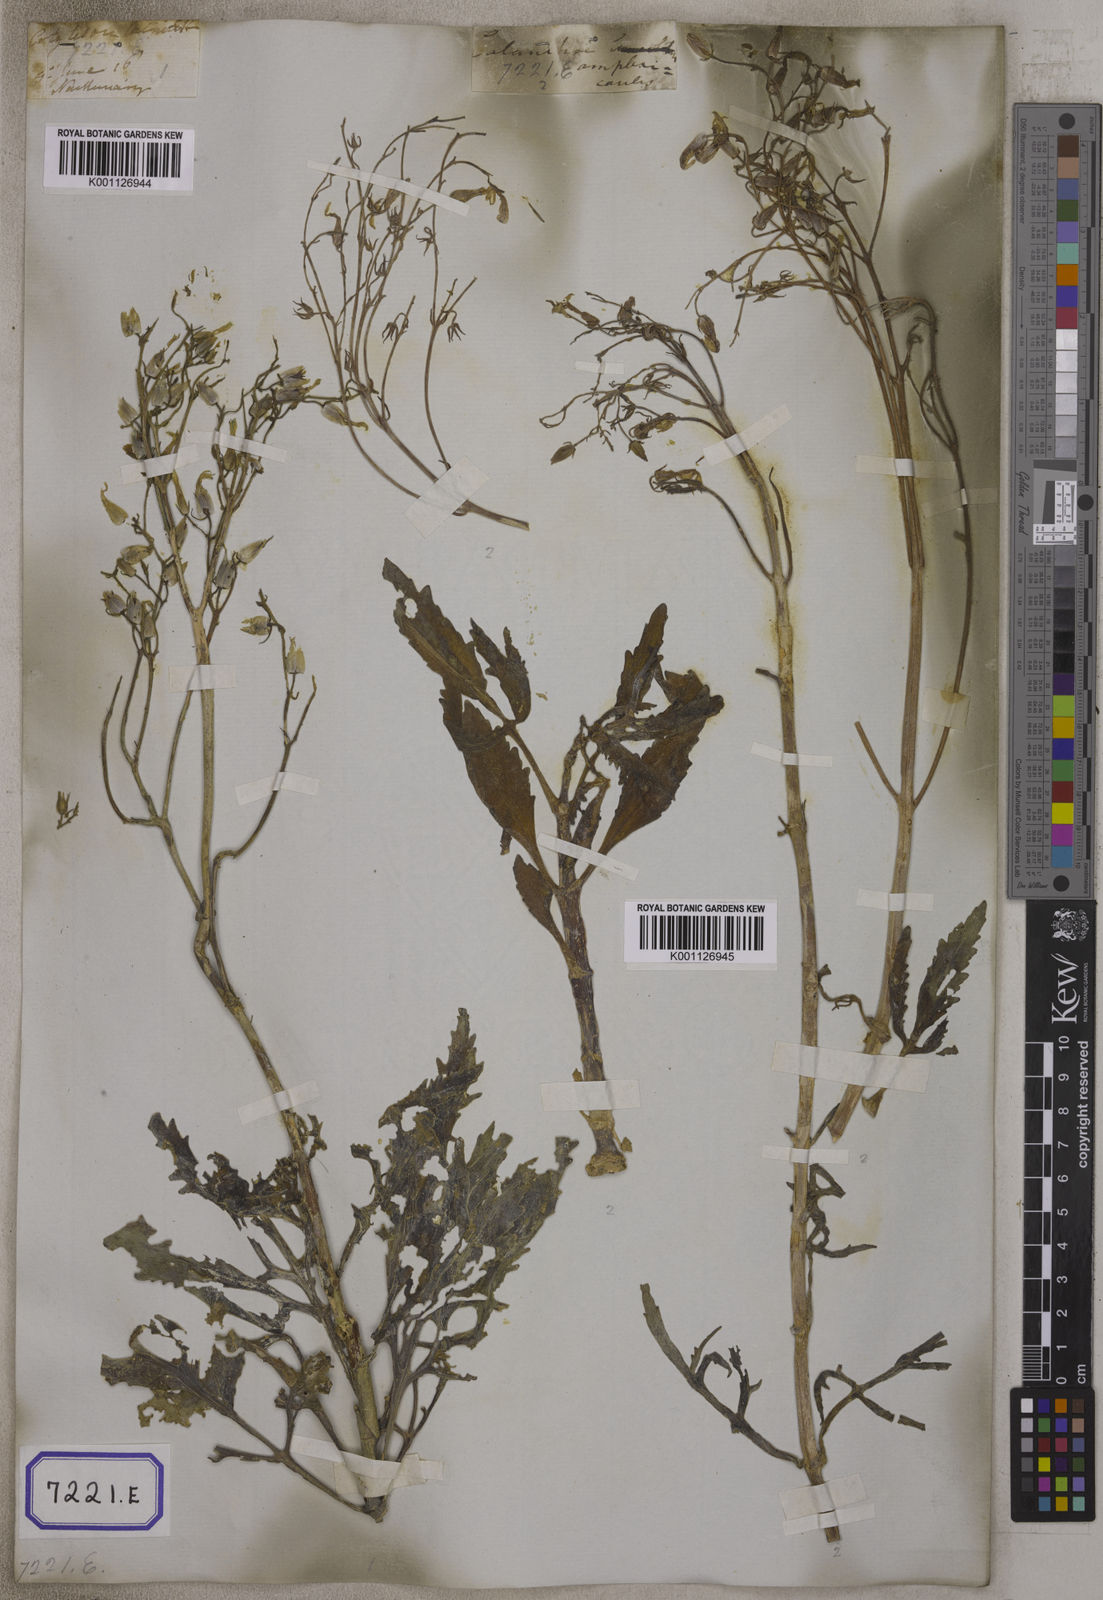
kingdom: Plantae
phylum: Tracheophyta
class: Magnoliopsida
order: Saxifragales
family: Crassulaceae
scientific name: Crassulaceae
